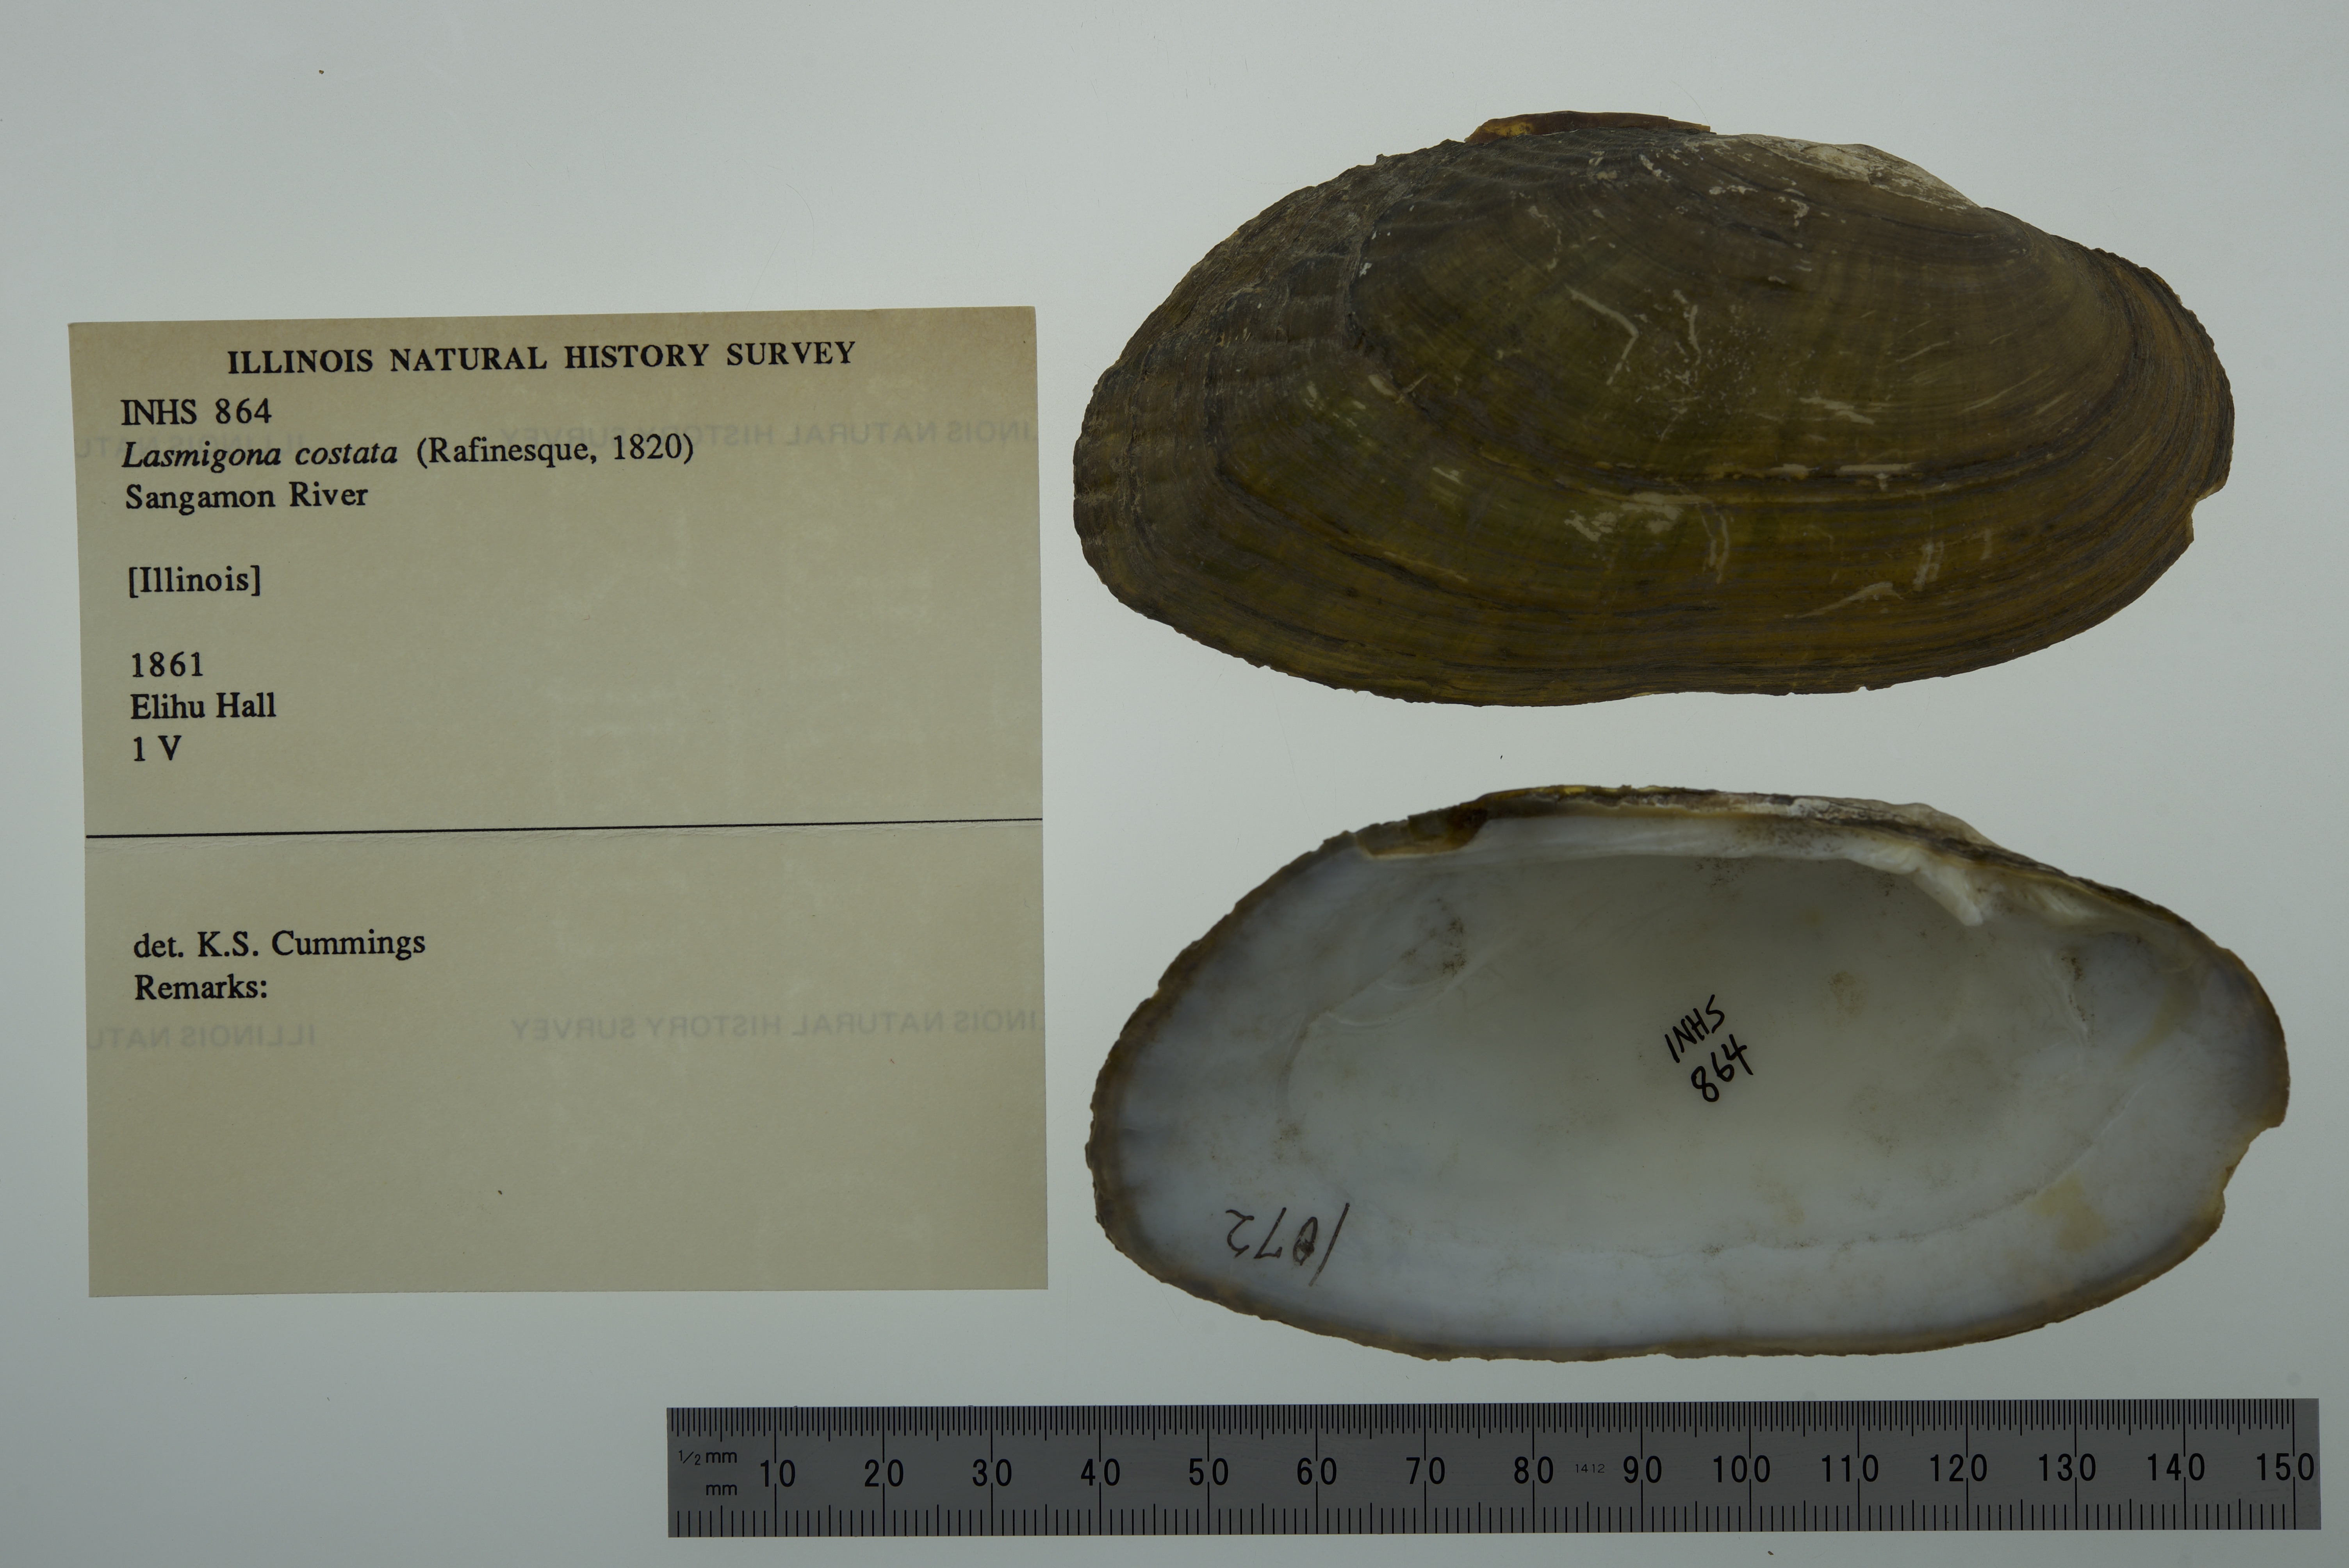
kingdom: Animalia
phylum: Mollusca
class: Bivalvia
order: Unionida
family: Unionidae
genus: Lasmigona
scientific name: Lasmigona costata
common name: Flutedshell
